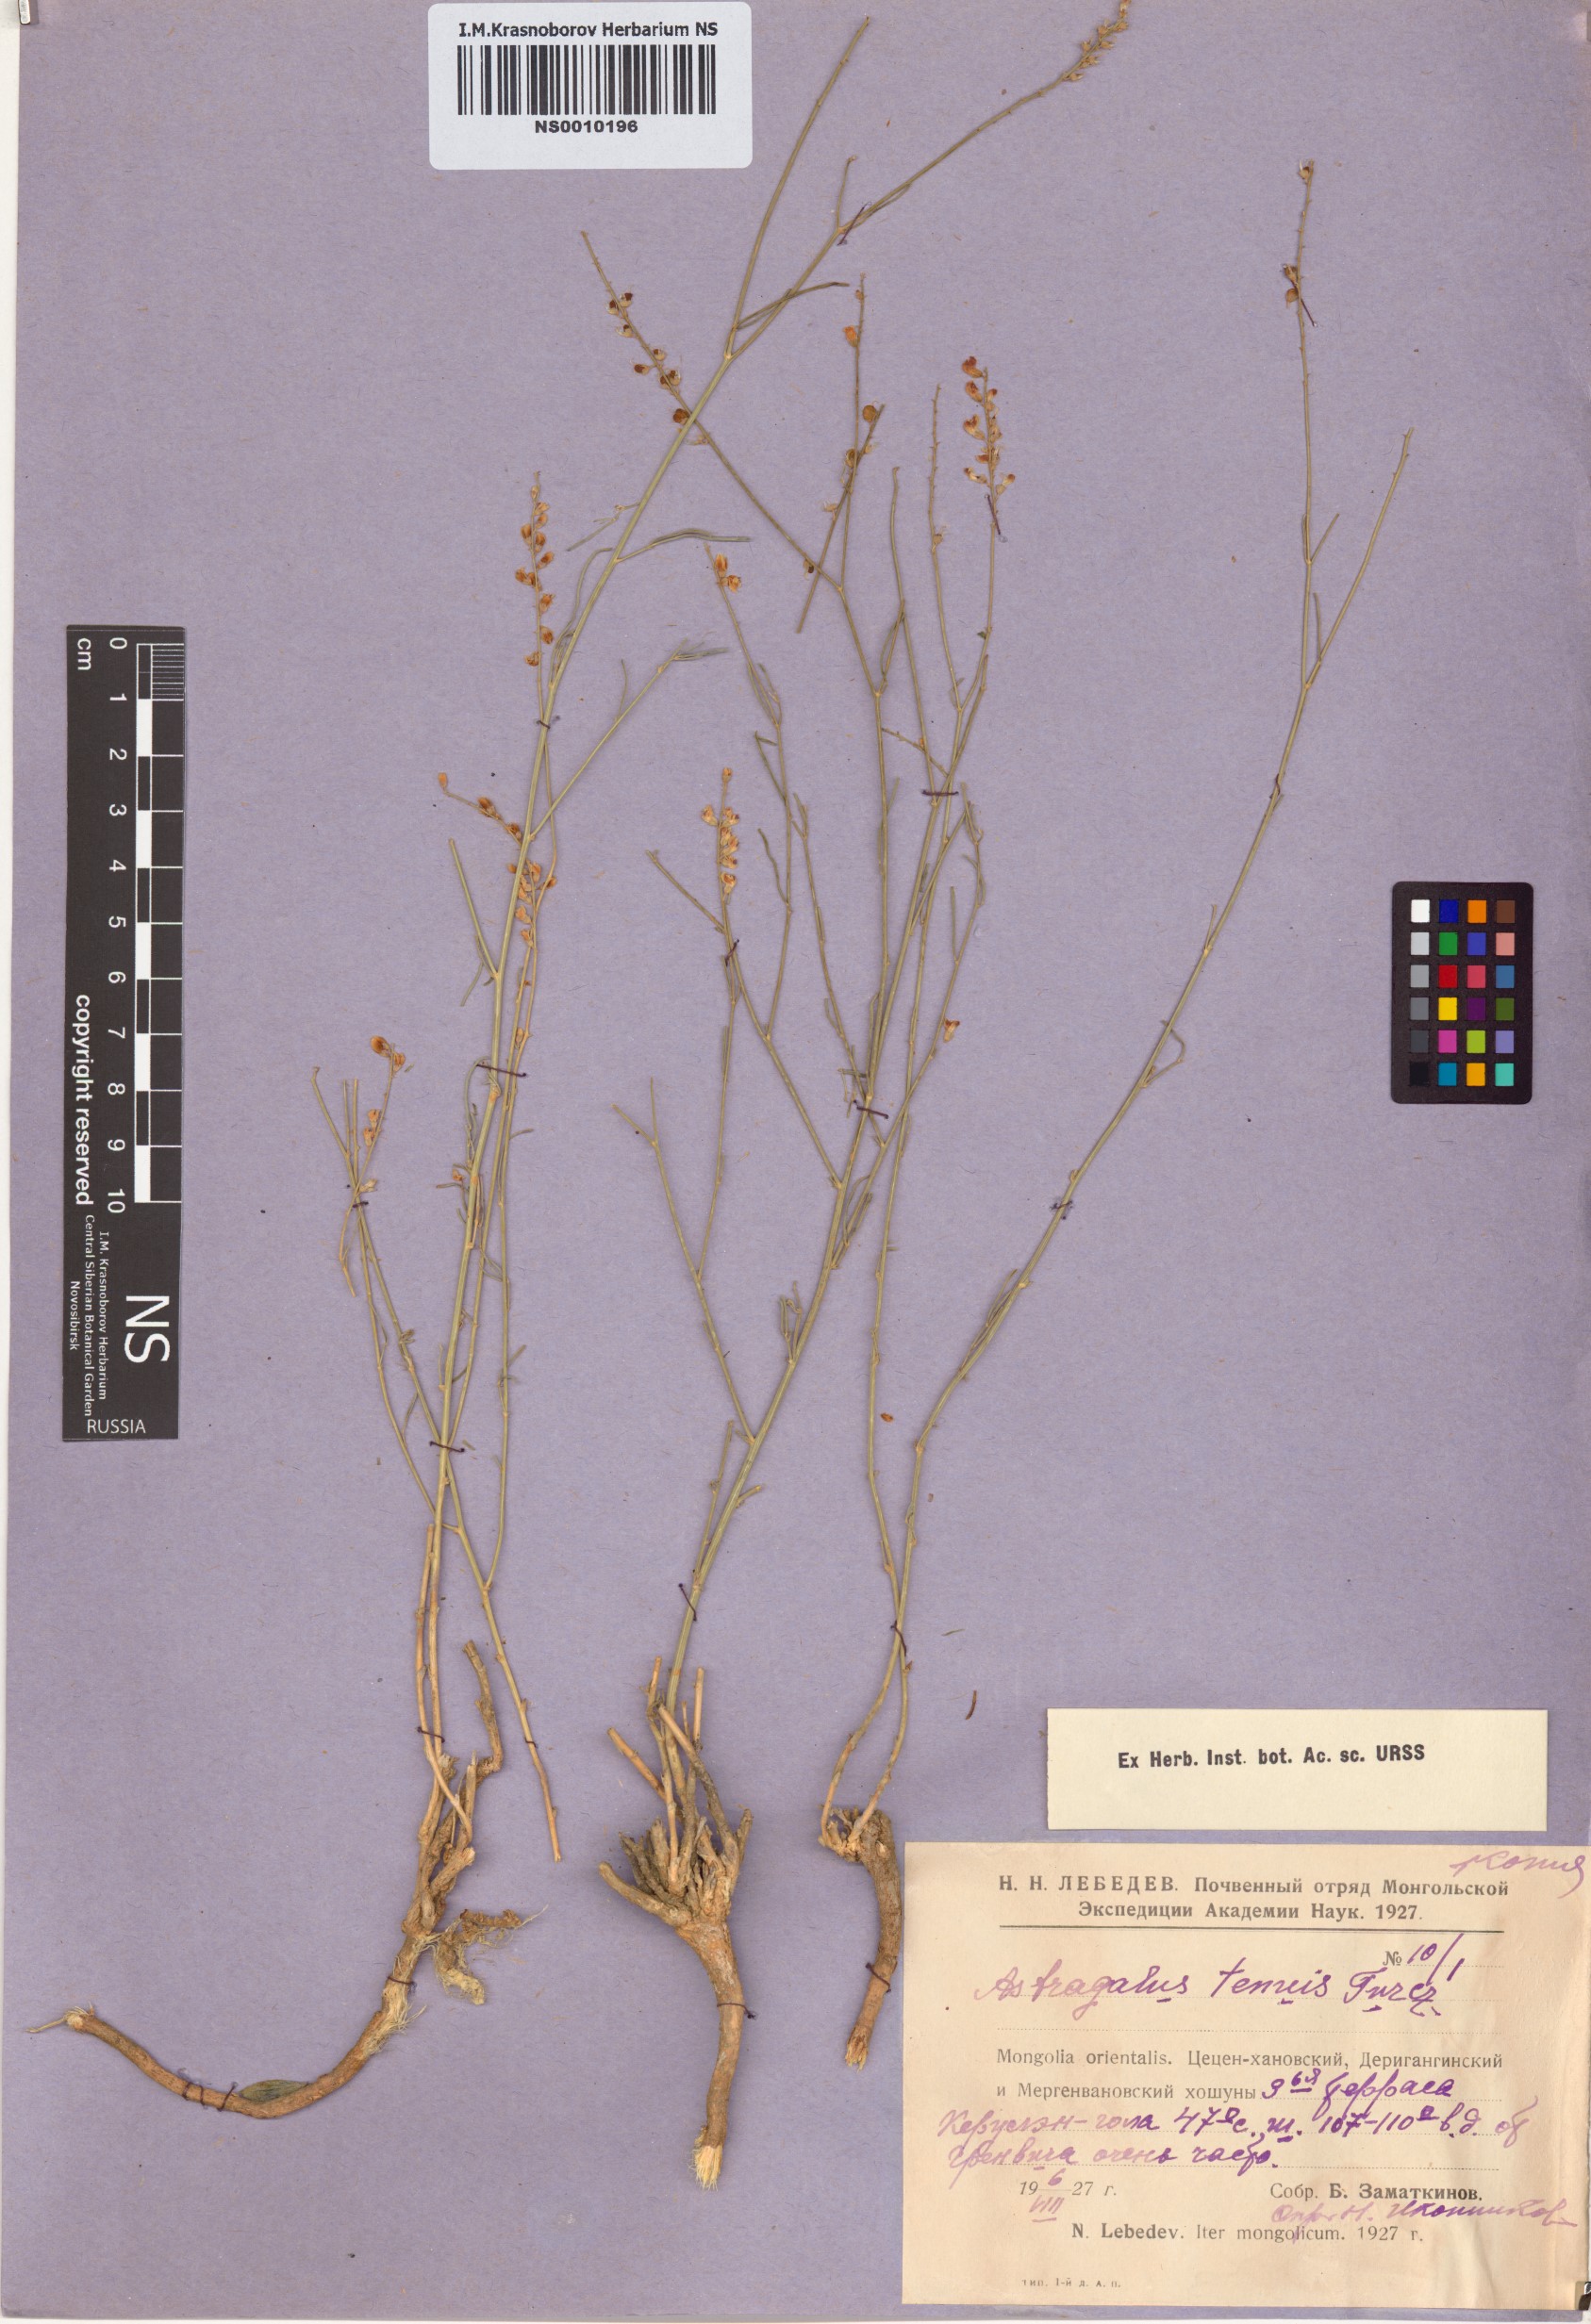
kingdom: Plantae
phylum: Tracheophyta
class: Magnoliopsida
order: Fabales
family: Fabaceae
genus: Astragalus
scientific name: Astragalus tenuis
